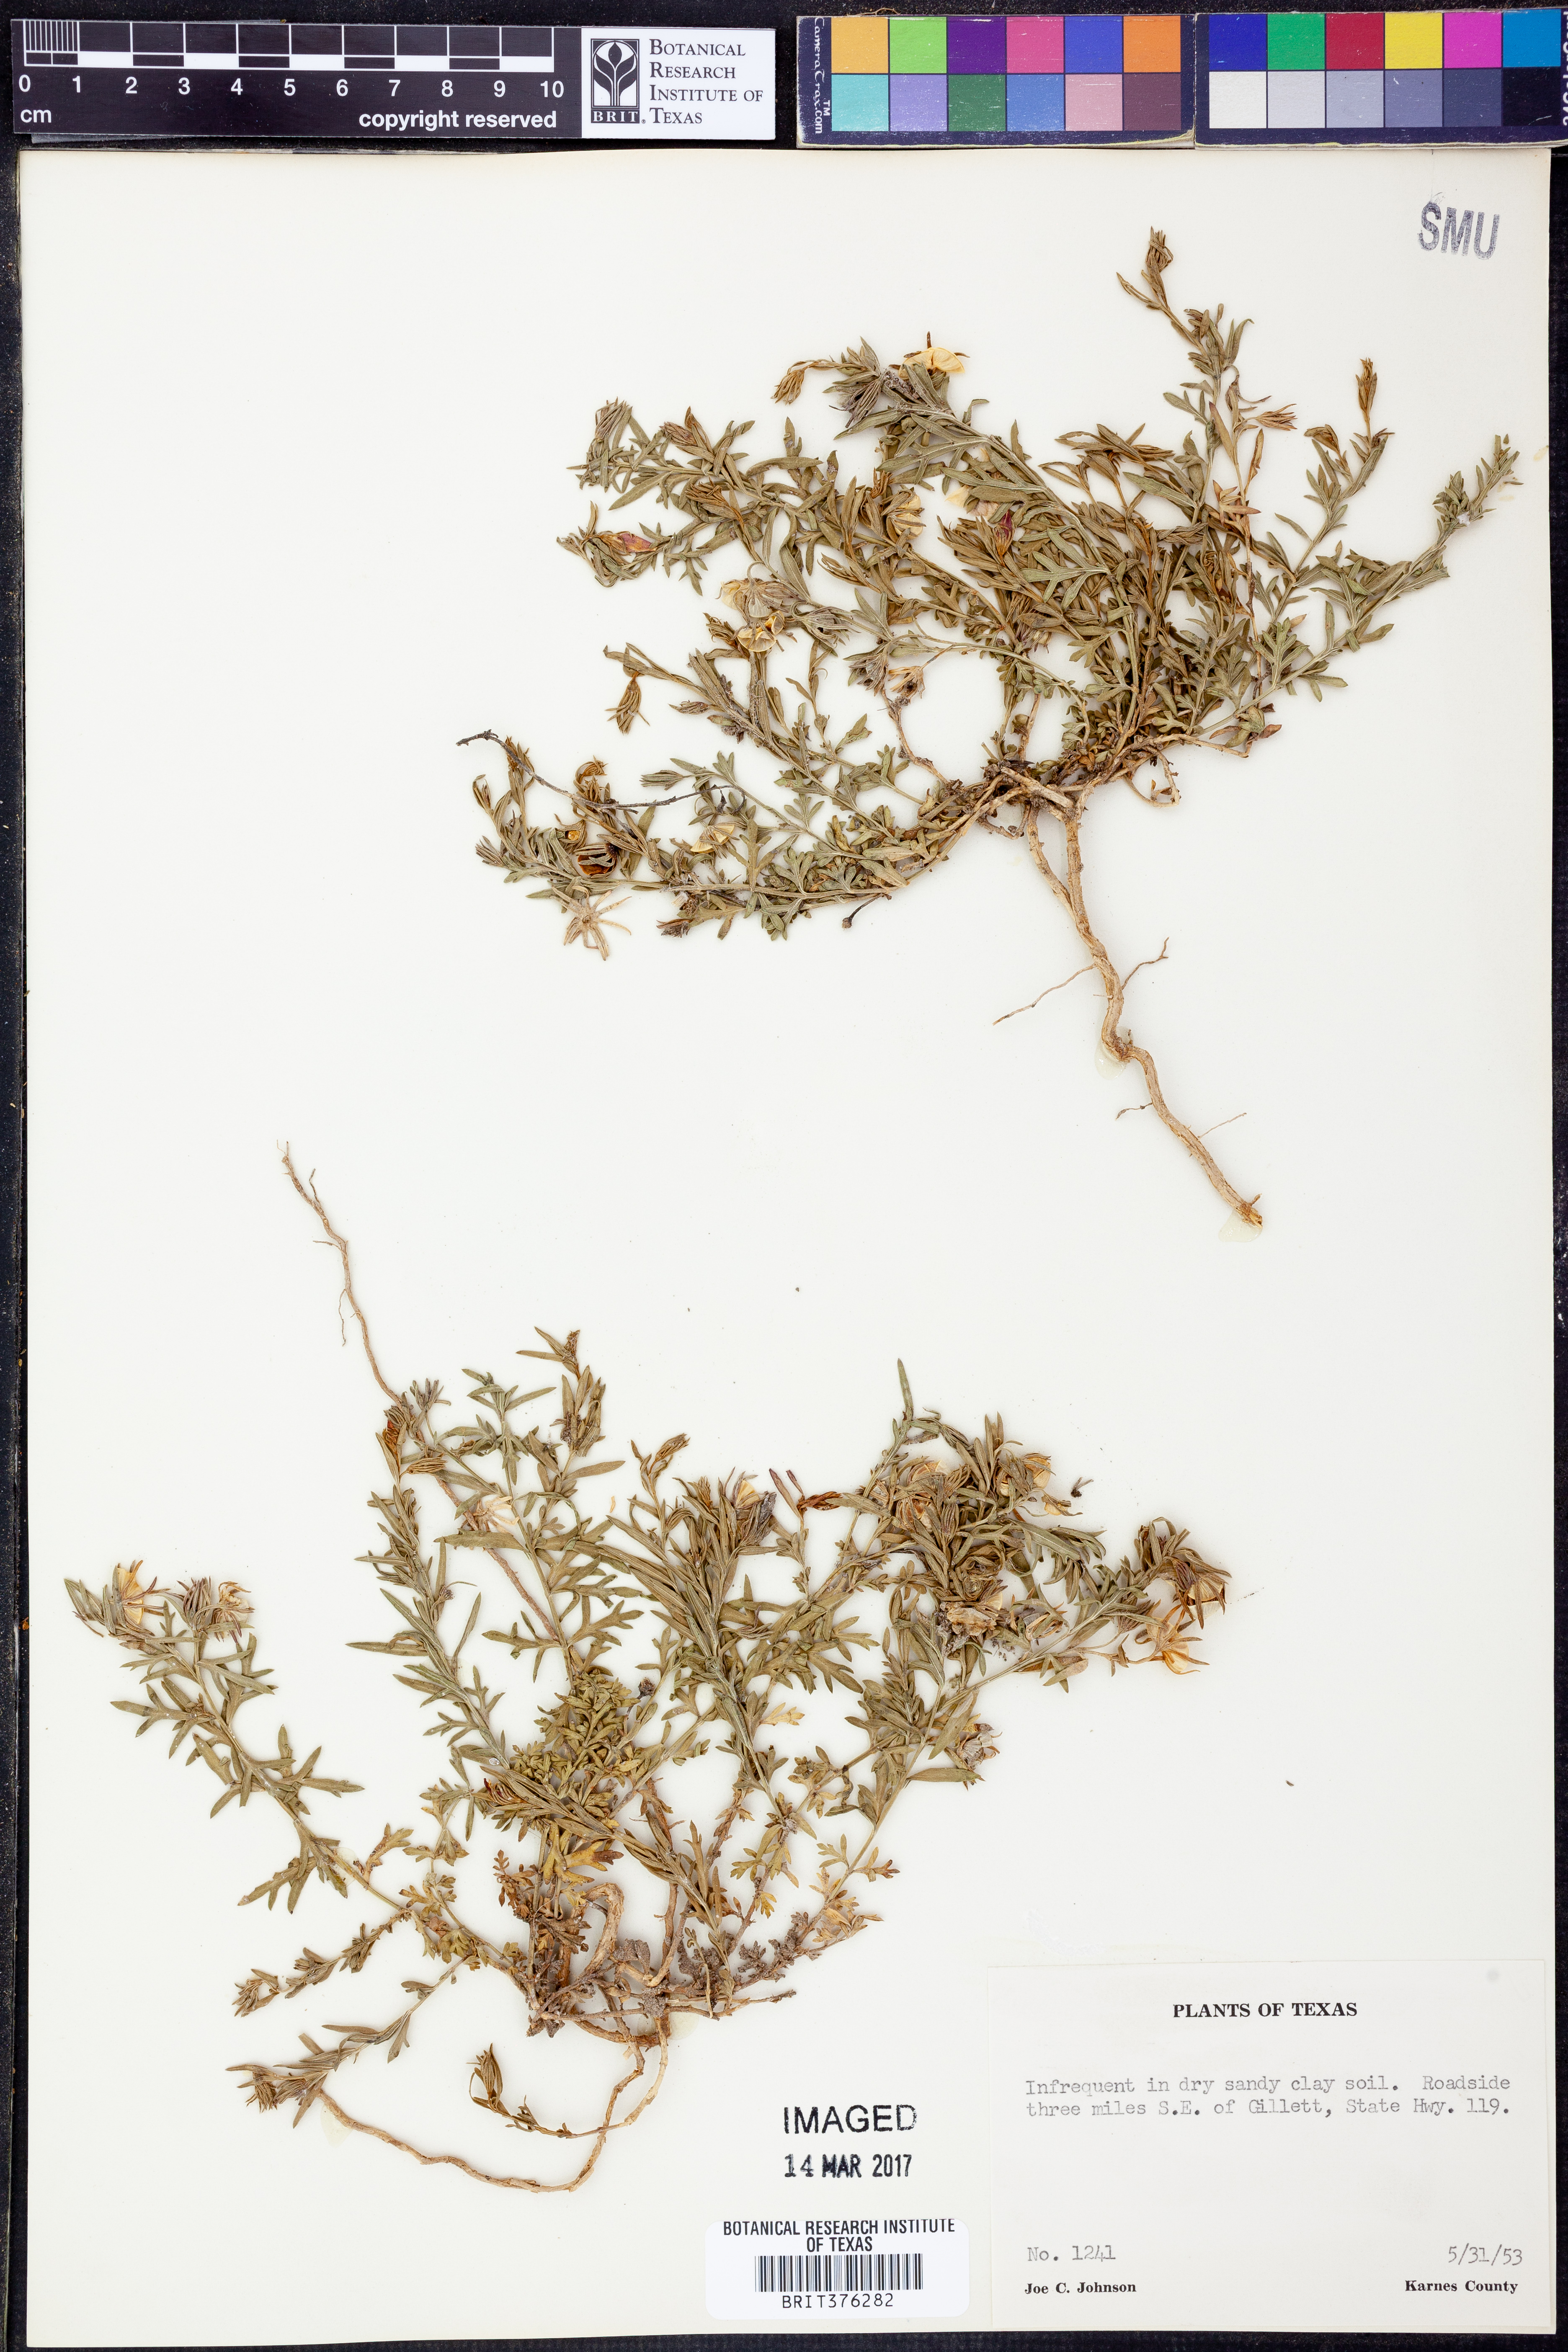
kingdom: Plantae
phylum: Tracheophyta
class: Magnoliopsida
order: Lamiales
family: Oleaceae
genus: Menodora
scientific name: Menodora heterophylla
